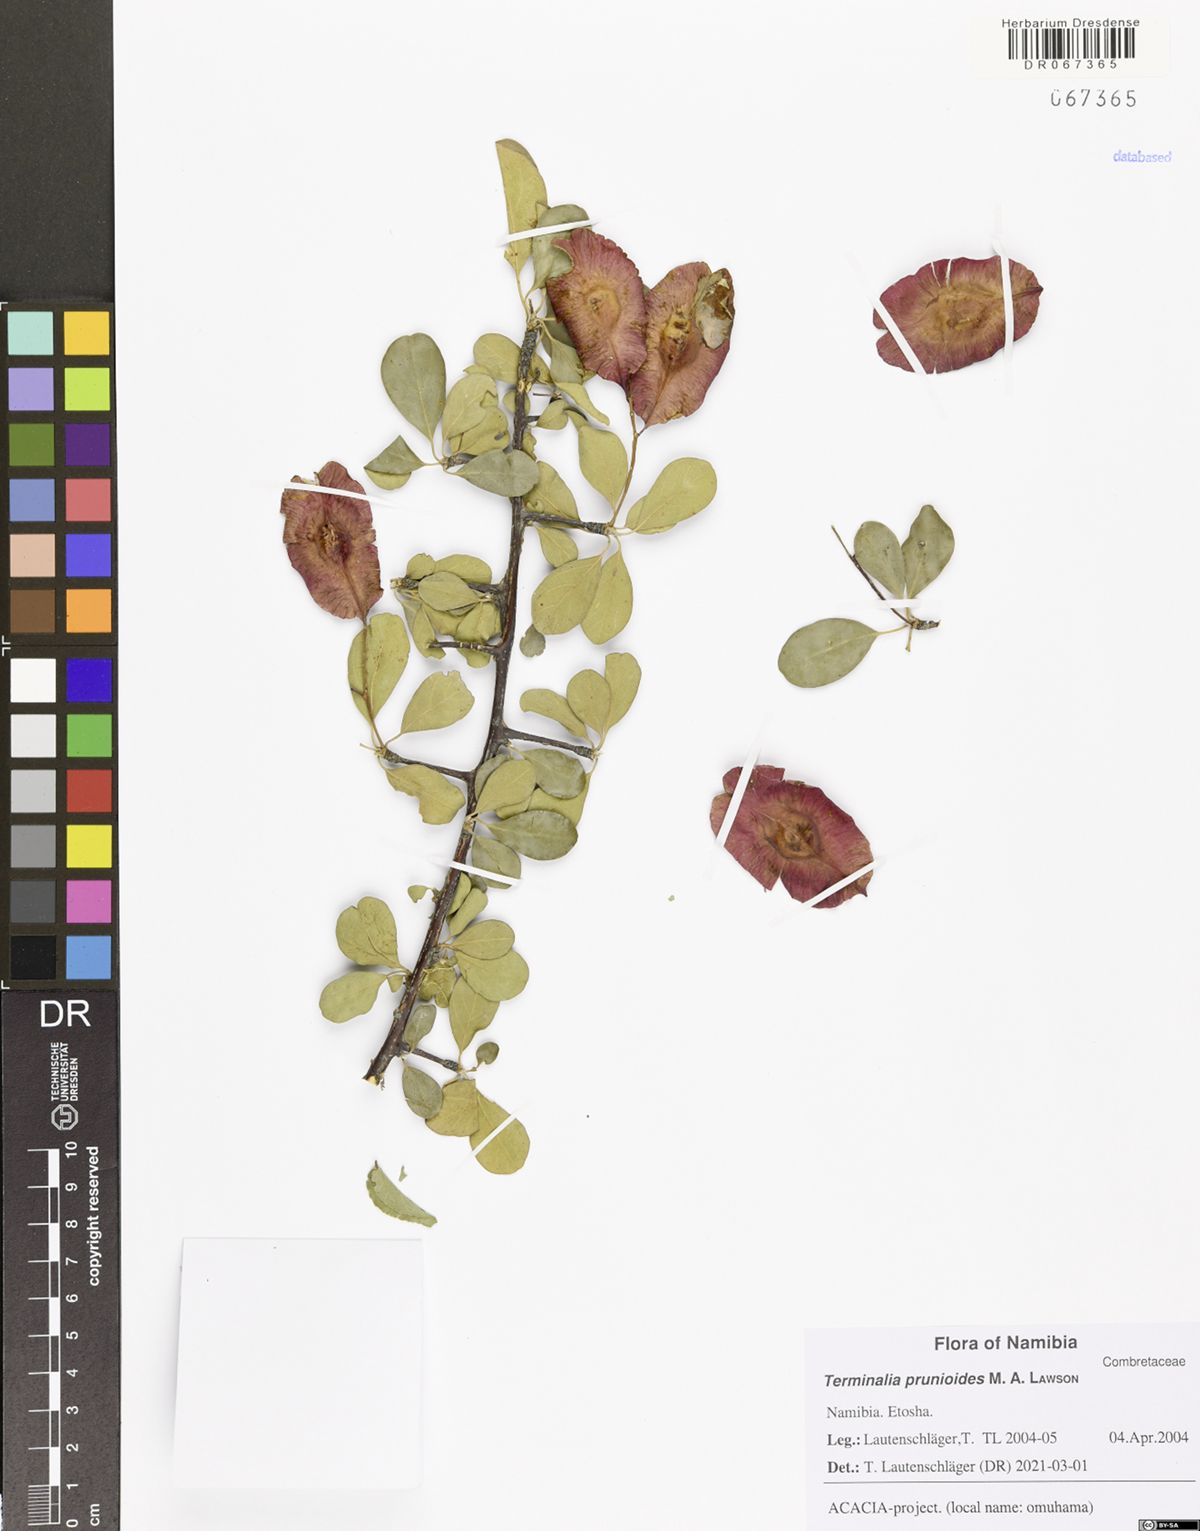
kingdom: Plantae
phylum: Tracheophyta
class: Magnoliopsida
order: Myrtales
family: Combretaceae
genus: Terminalia
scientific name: Terminalia prunioides
